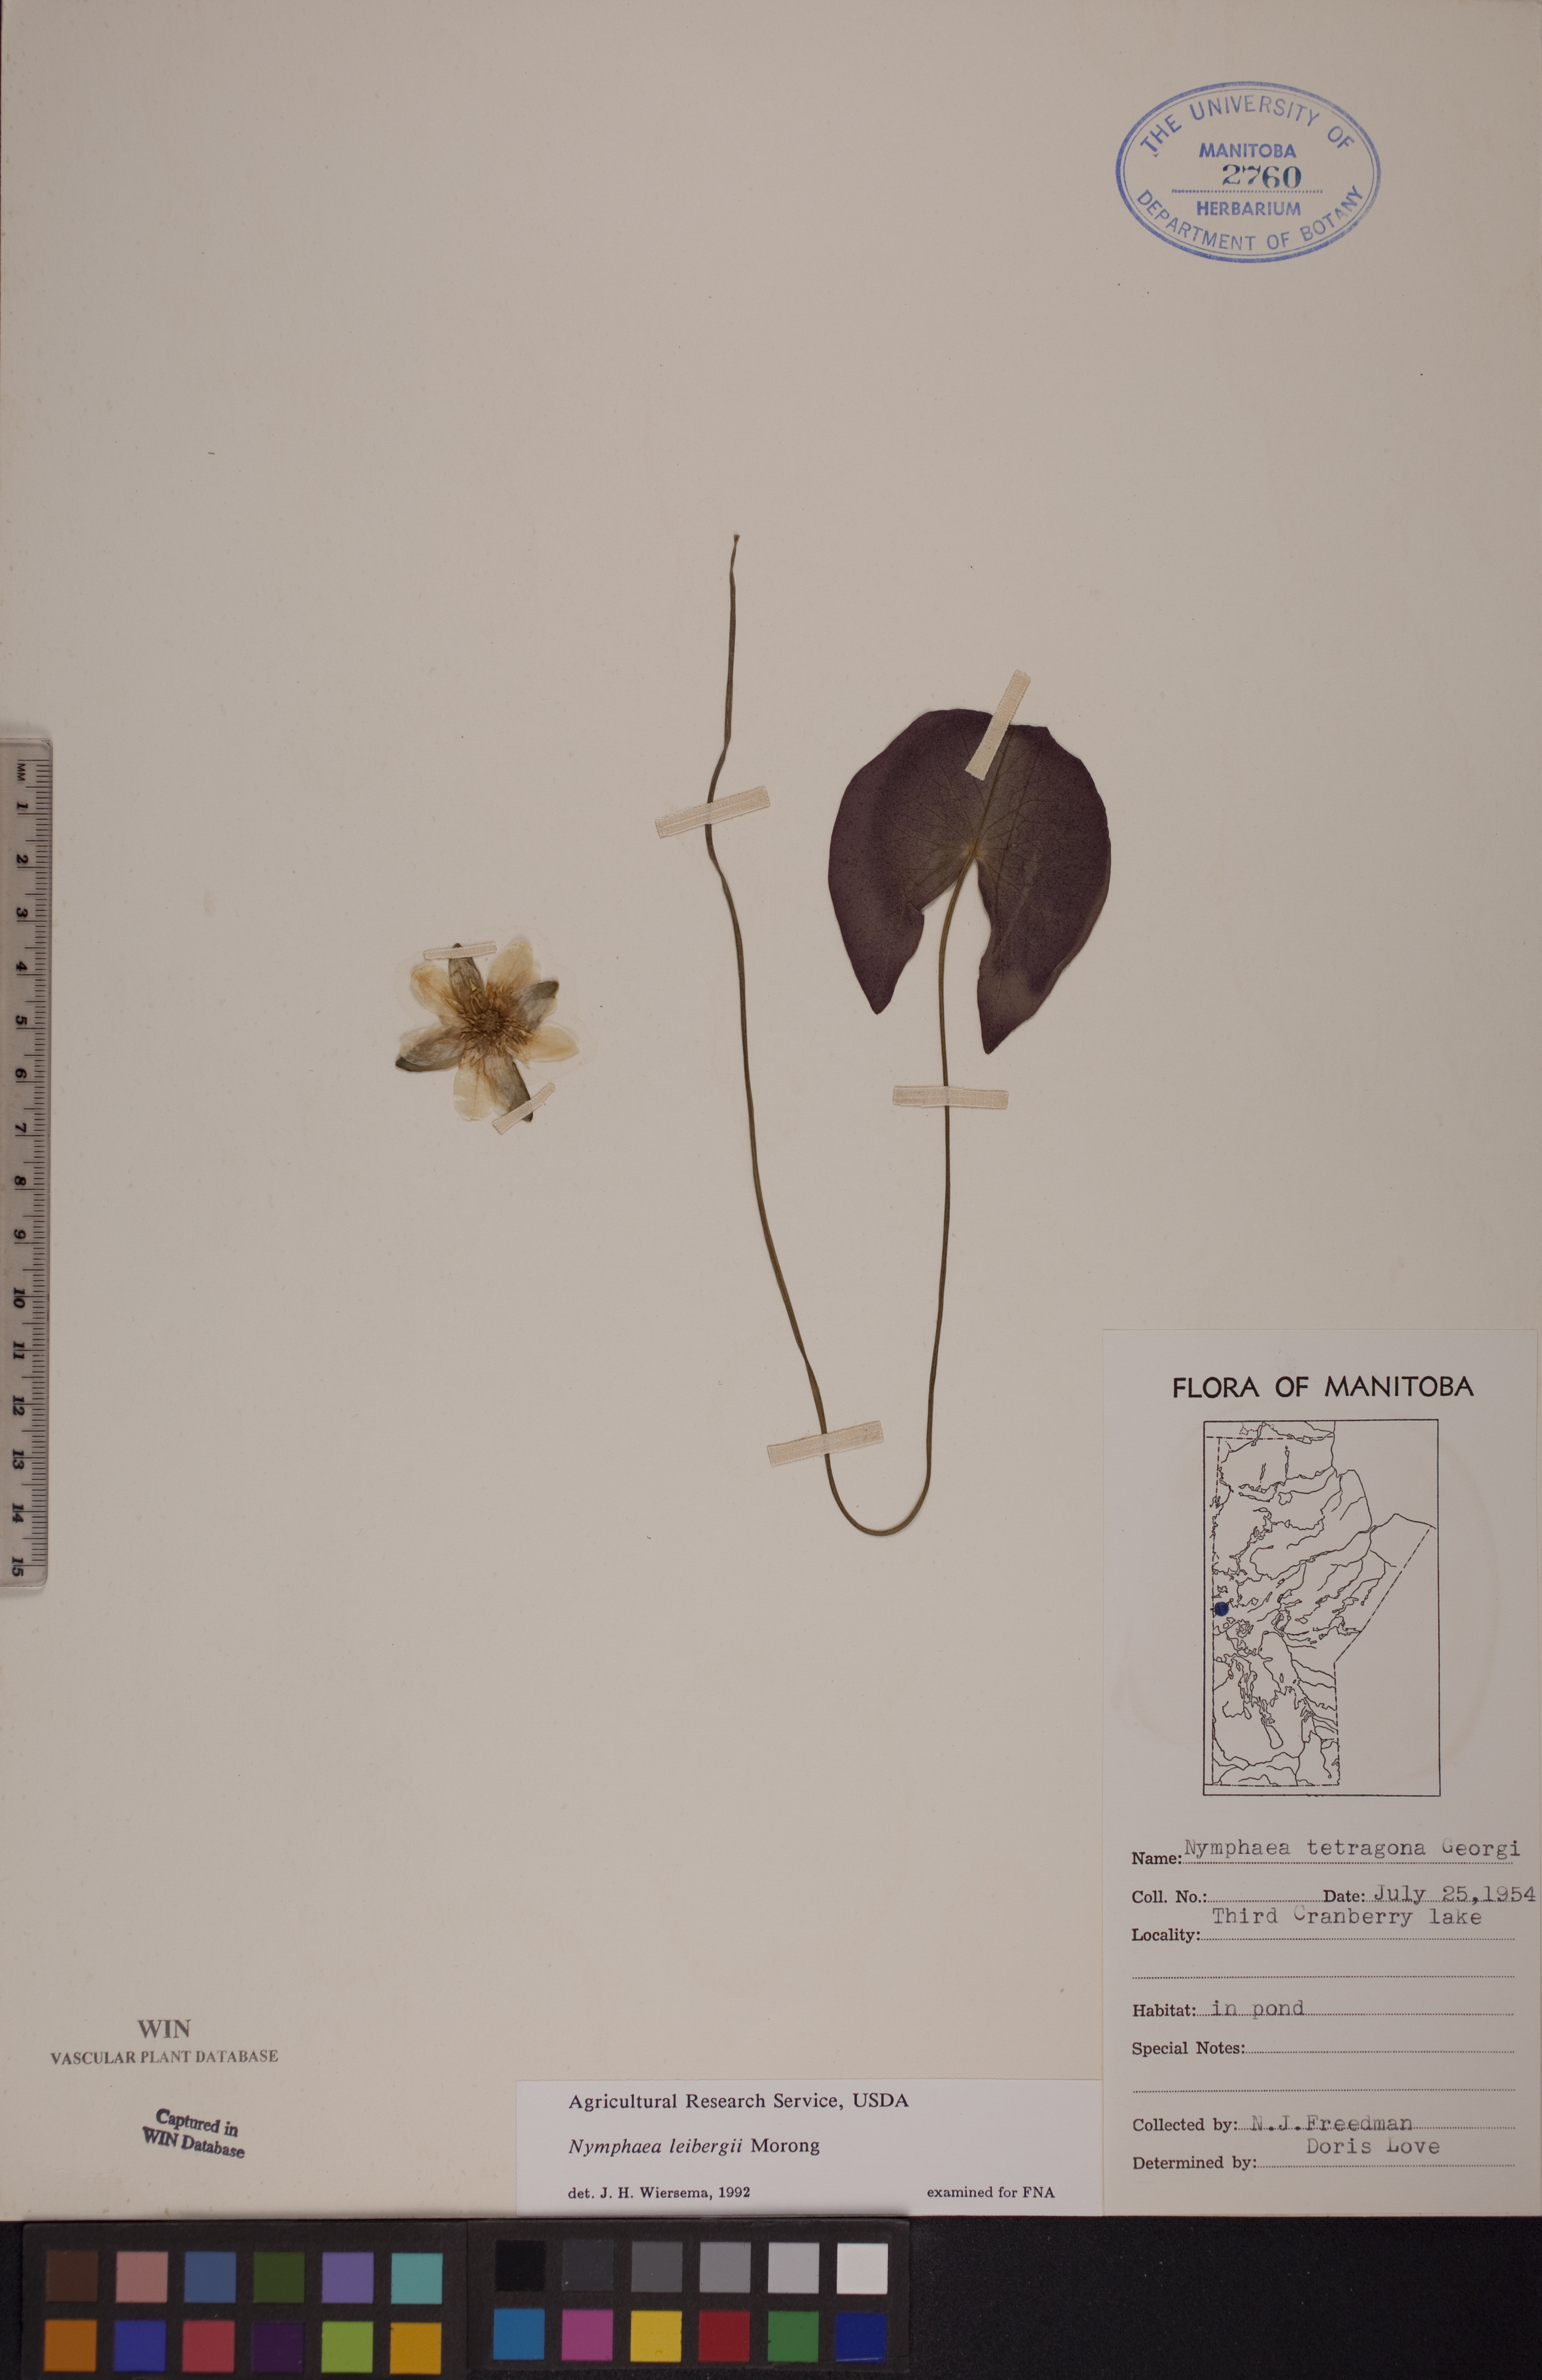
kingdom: Plantae
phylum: Tracheophyta
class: Magnoliopsida
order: Nymphaeales
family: Nymphaeaceae
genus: Nymphaea
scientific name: Nymphaea leibergii
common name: Dwarf water-lily
